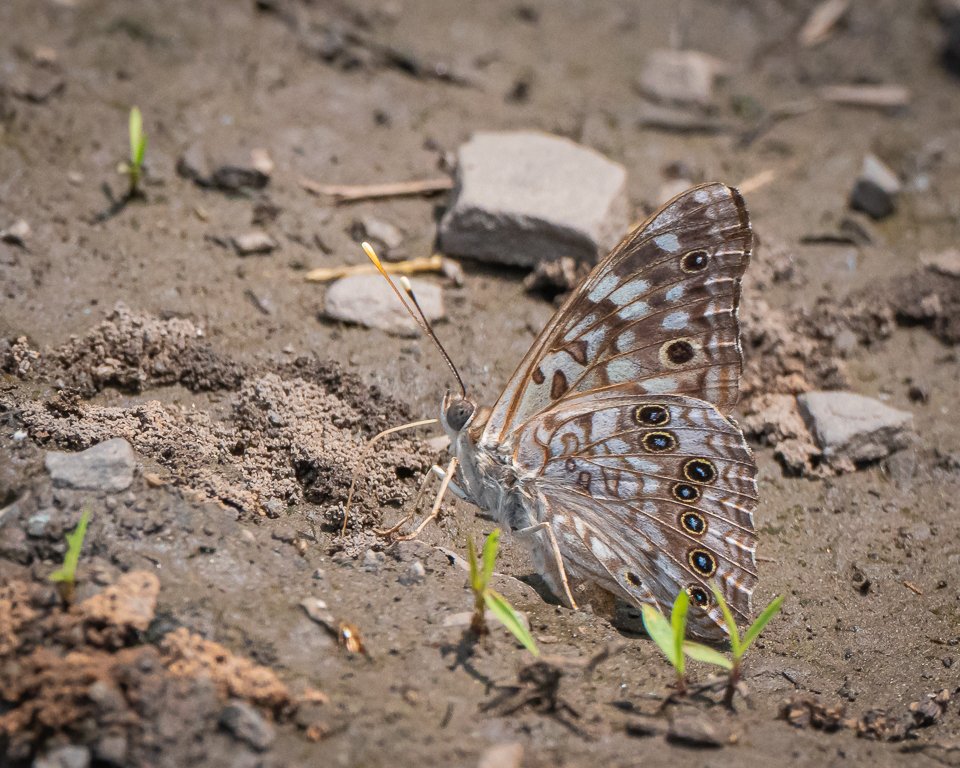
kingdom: Animalia
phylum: Arthropoda
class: Insecta
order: Lepidoptera
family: Nymphalidae
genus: Asterocampa
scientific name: Asterocampa celtis
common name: Hackberry Emperor
